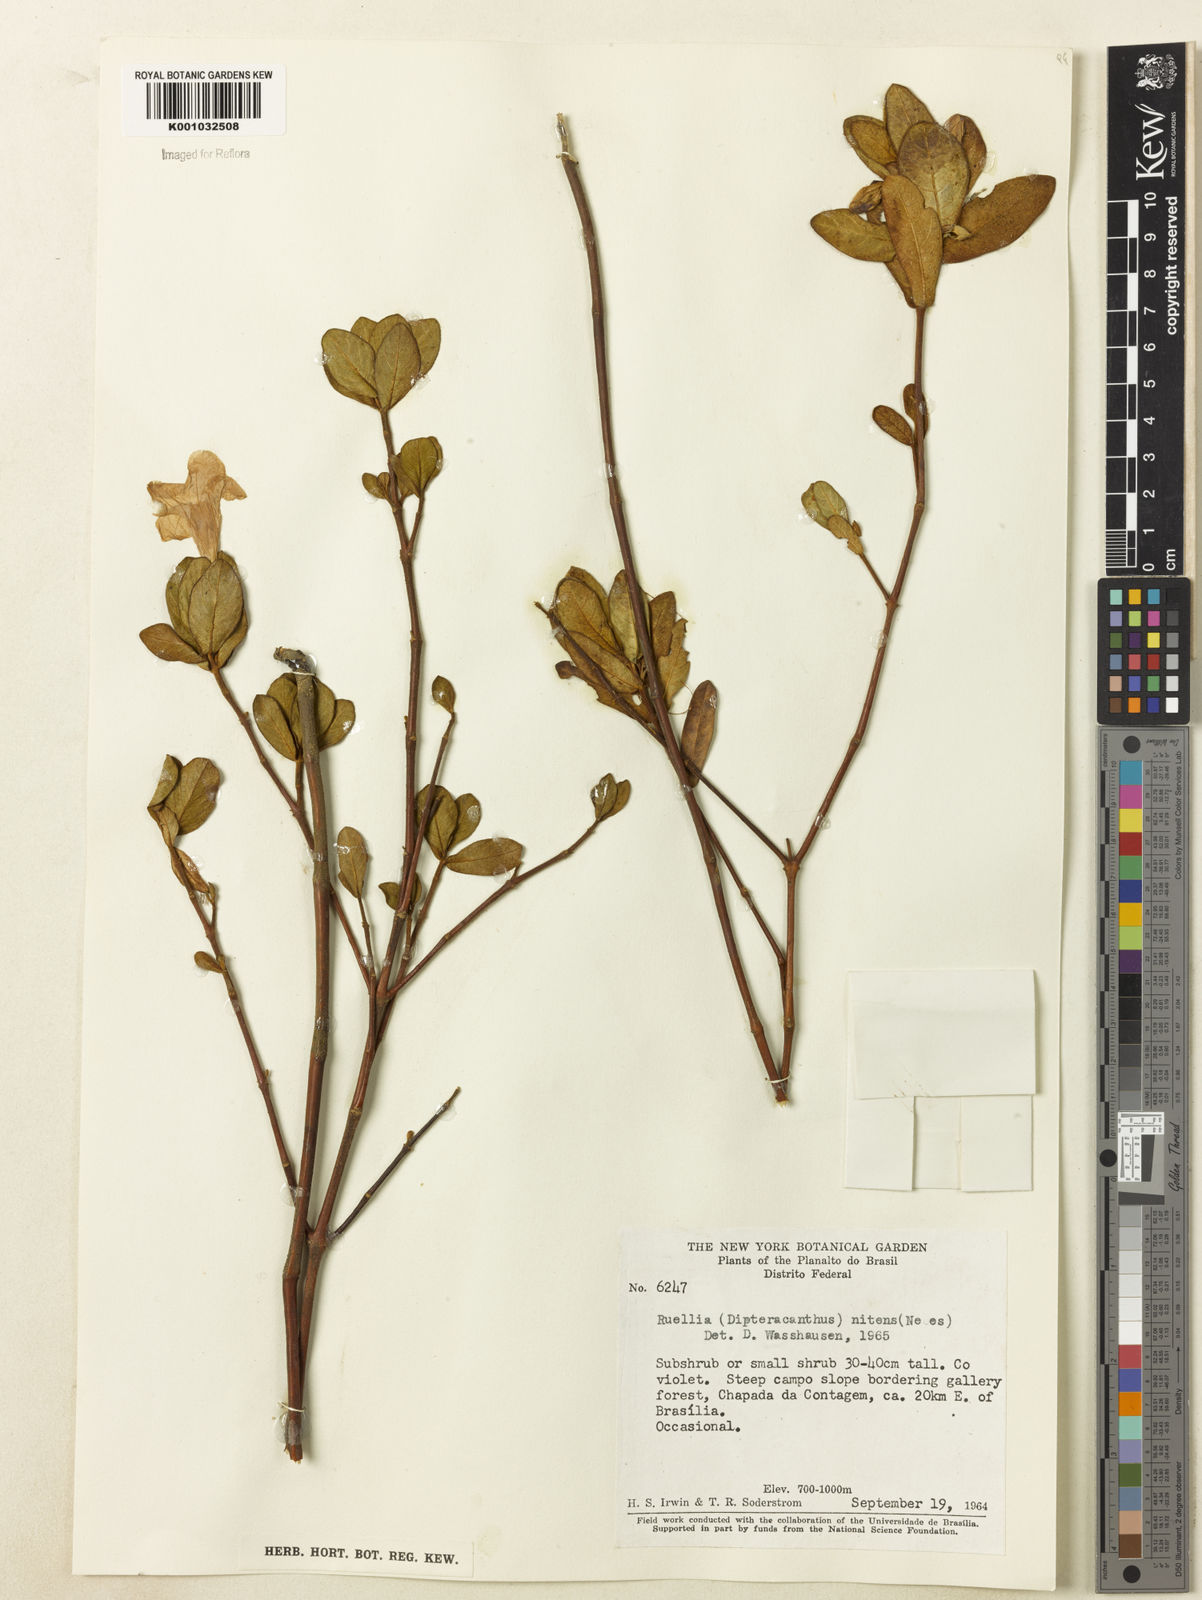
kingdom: Plantae
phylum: Tracheophyta
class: Magnoliopsida
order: Lamiales
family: Acanthaceae
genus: Ruellia
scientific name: Ruellia nitens
